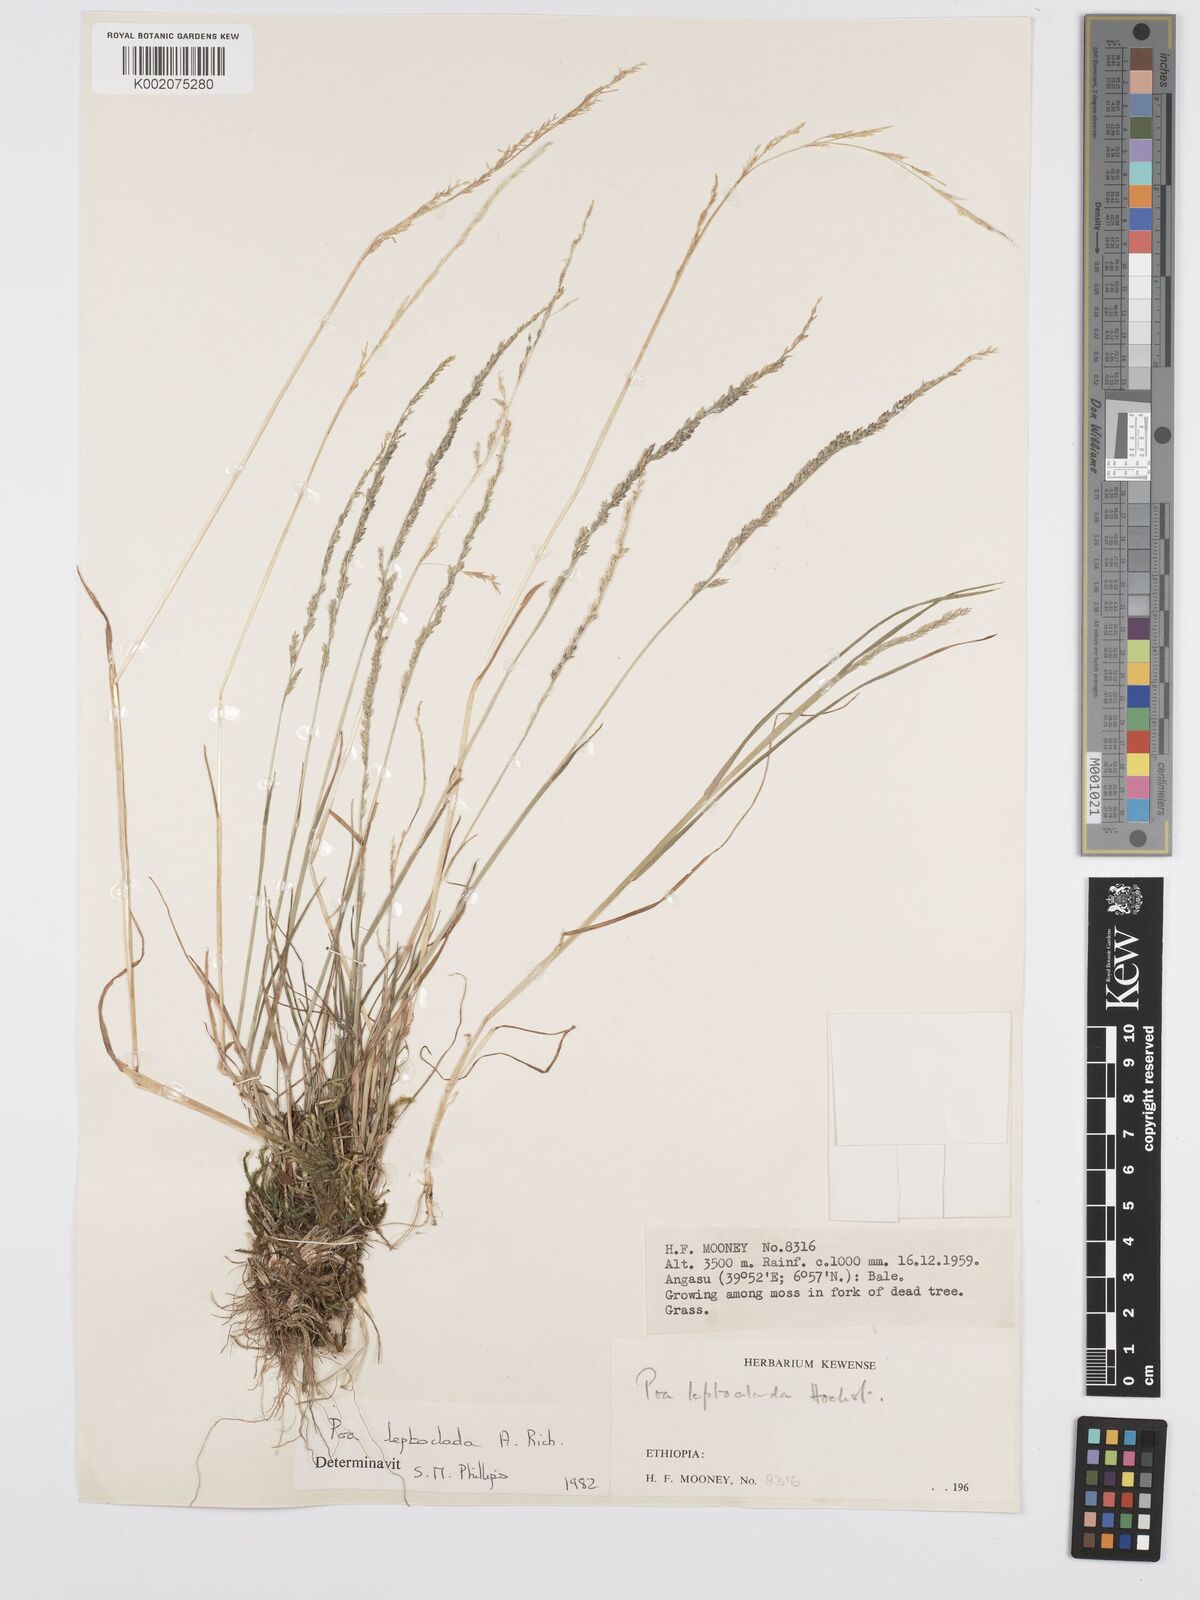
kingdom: Plantae
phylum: Tracheophyta
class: Liliopsida
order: Poales
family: Poaceae
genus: Poa
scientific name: Poa leptoclada
